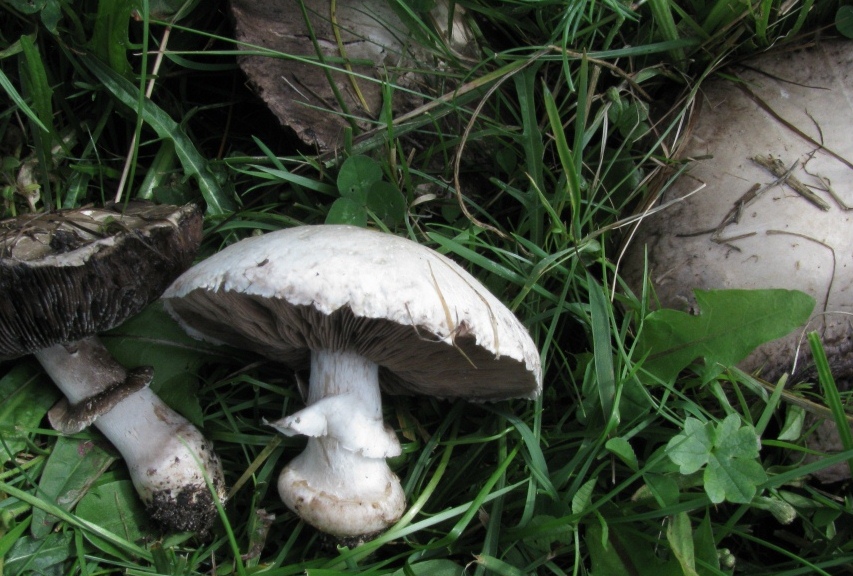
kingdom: Fungi
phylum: Basidiomycota
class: Agaricomycetes
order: Agaricales
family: Agaricaceae
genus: Agaricus
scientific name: Agaricus
